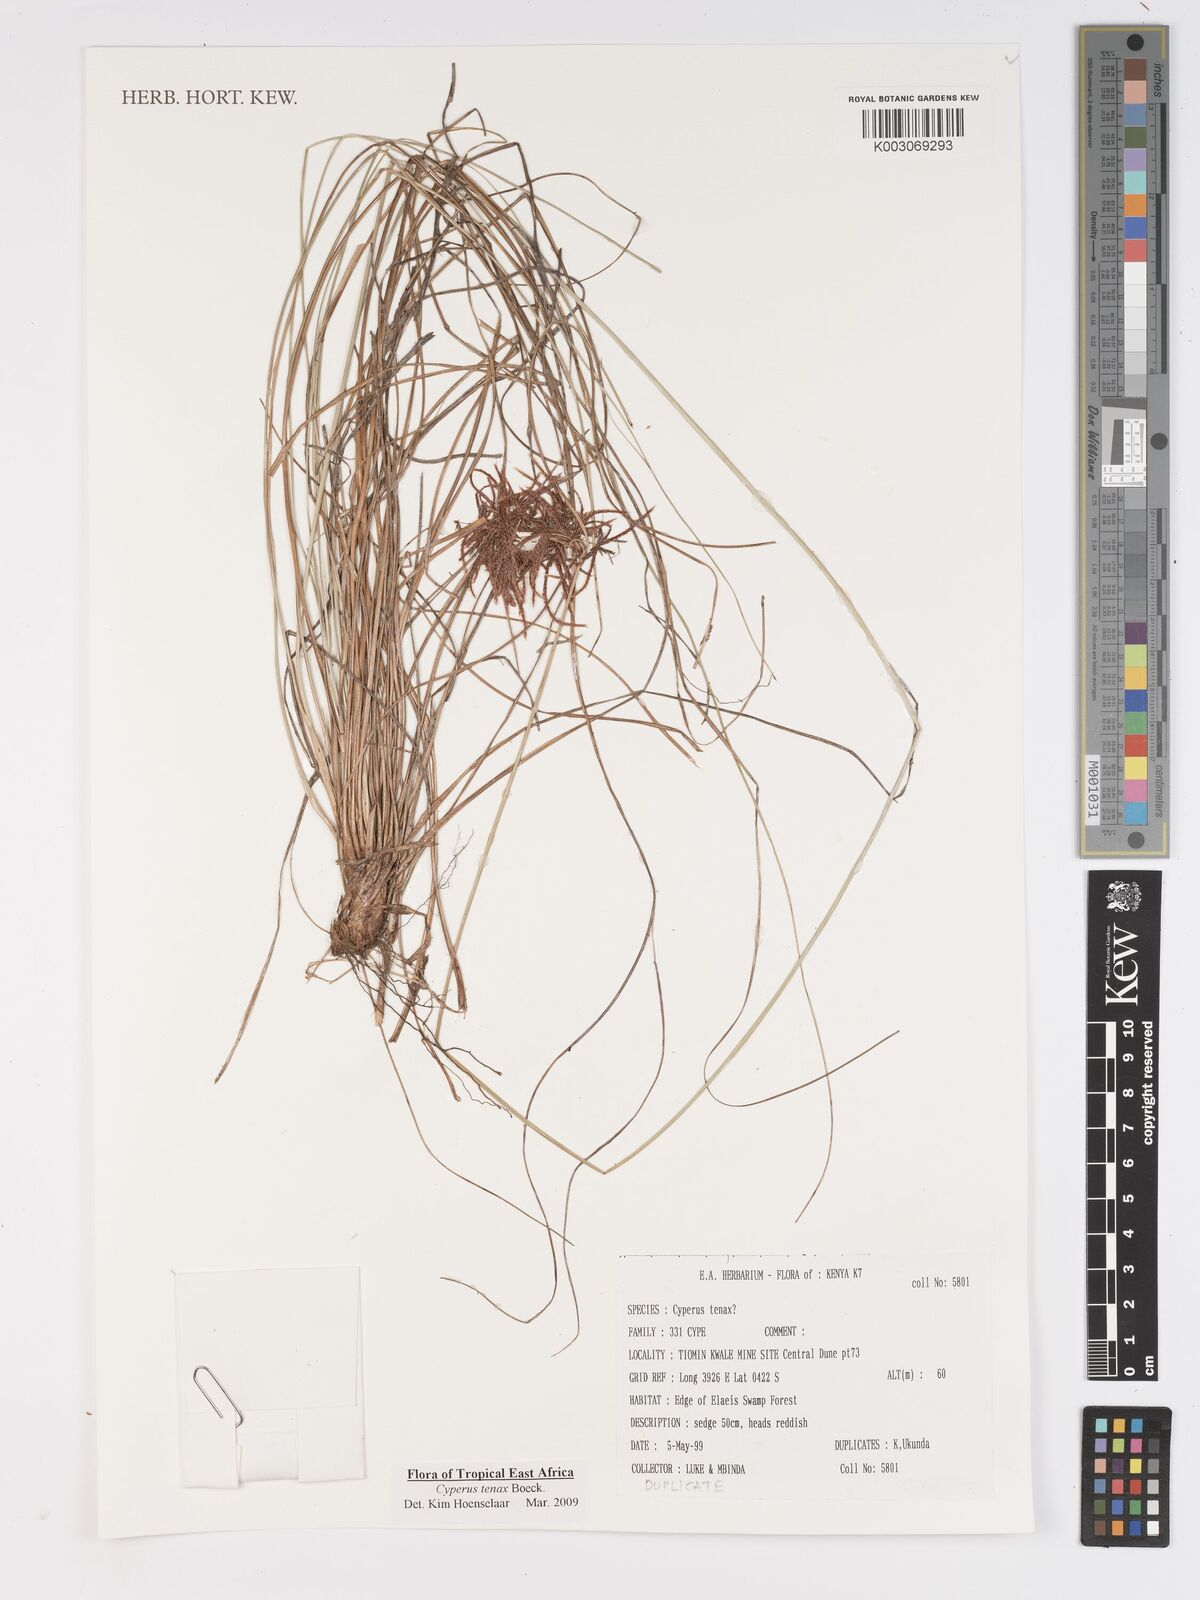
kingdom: Plantae
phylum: Tracheophyta
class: Liliopsida
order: Poales
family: Cyperaceae
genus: Cyperus
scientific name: Cyperus tenax
